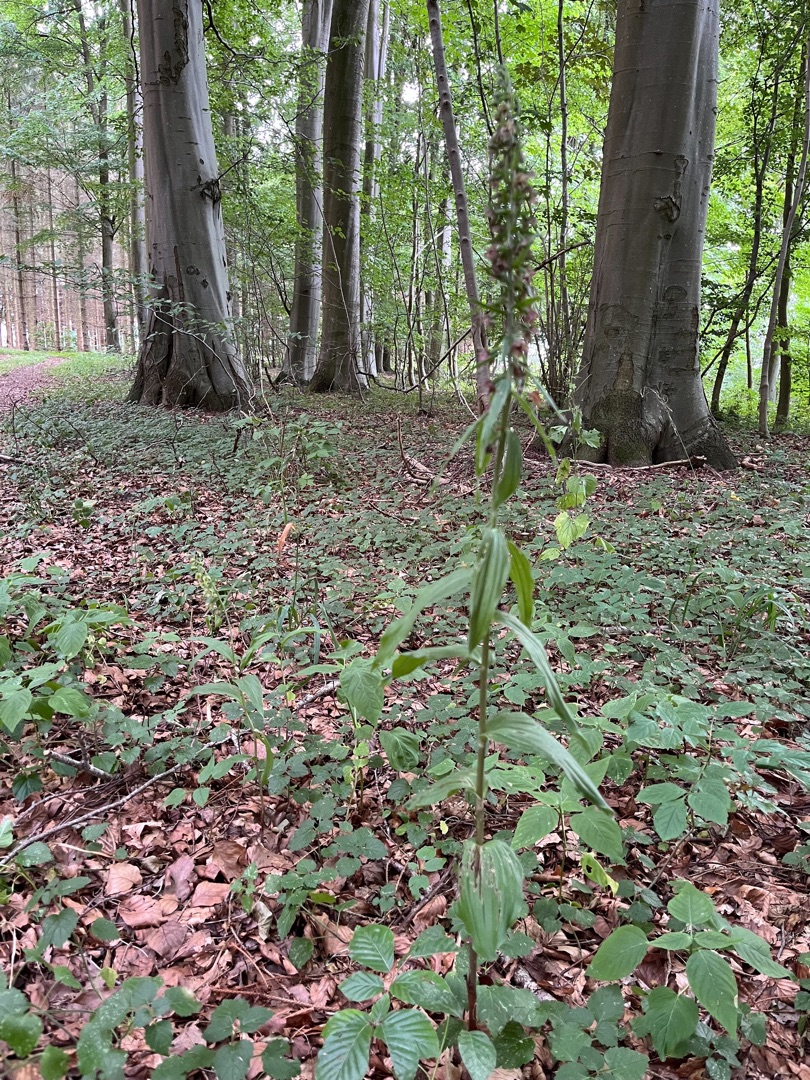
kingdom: Plantae
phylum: Tracheophyta
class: Liliopsida
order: Asparagales
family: Orchidaceae
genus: Epipactis
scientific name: Epipactis helleborine
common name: Skov-hullæbe
